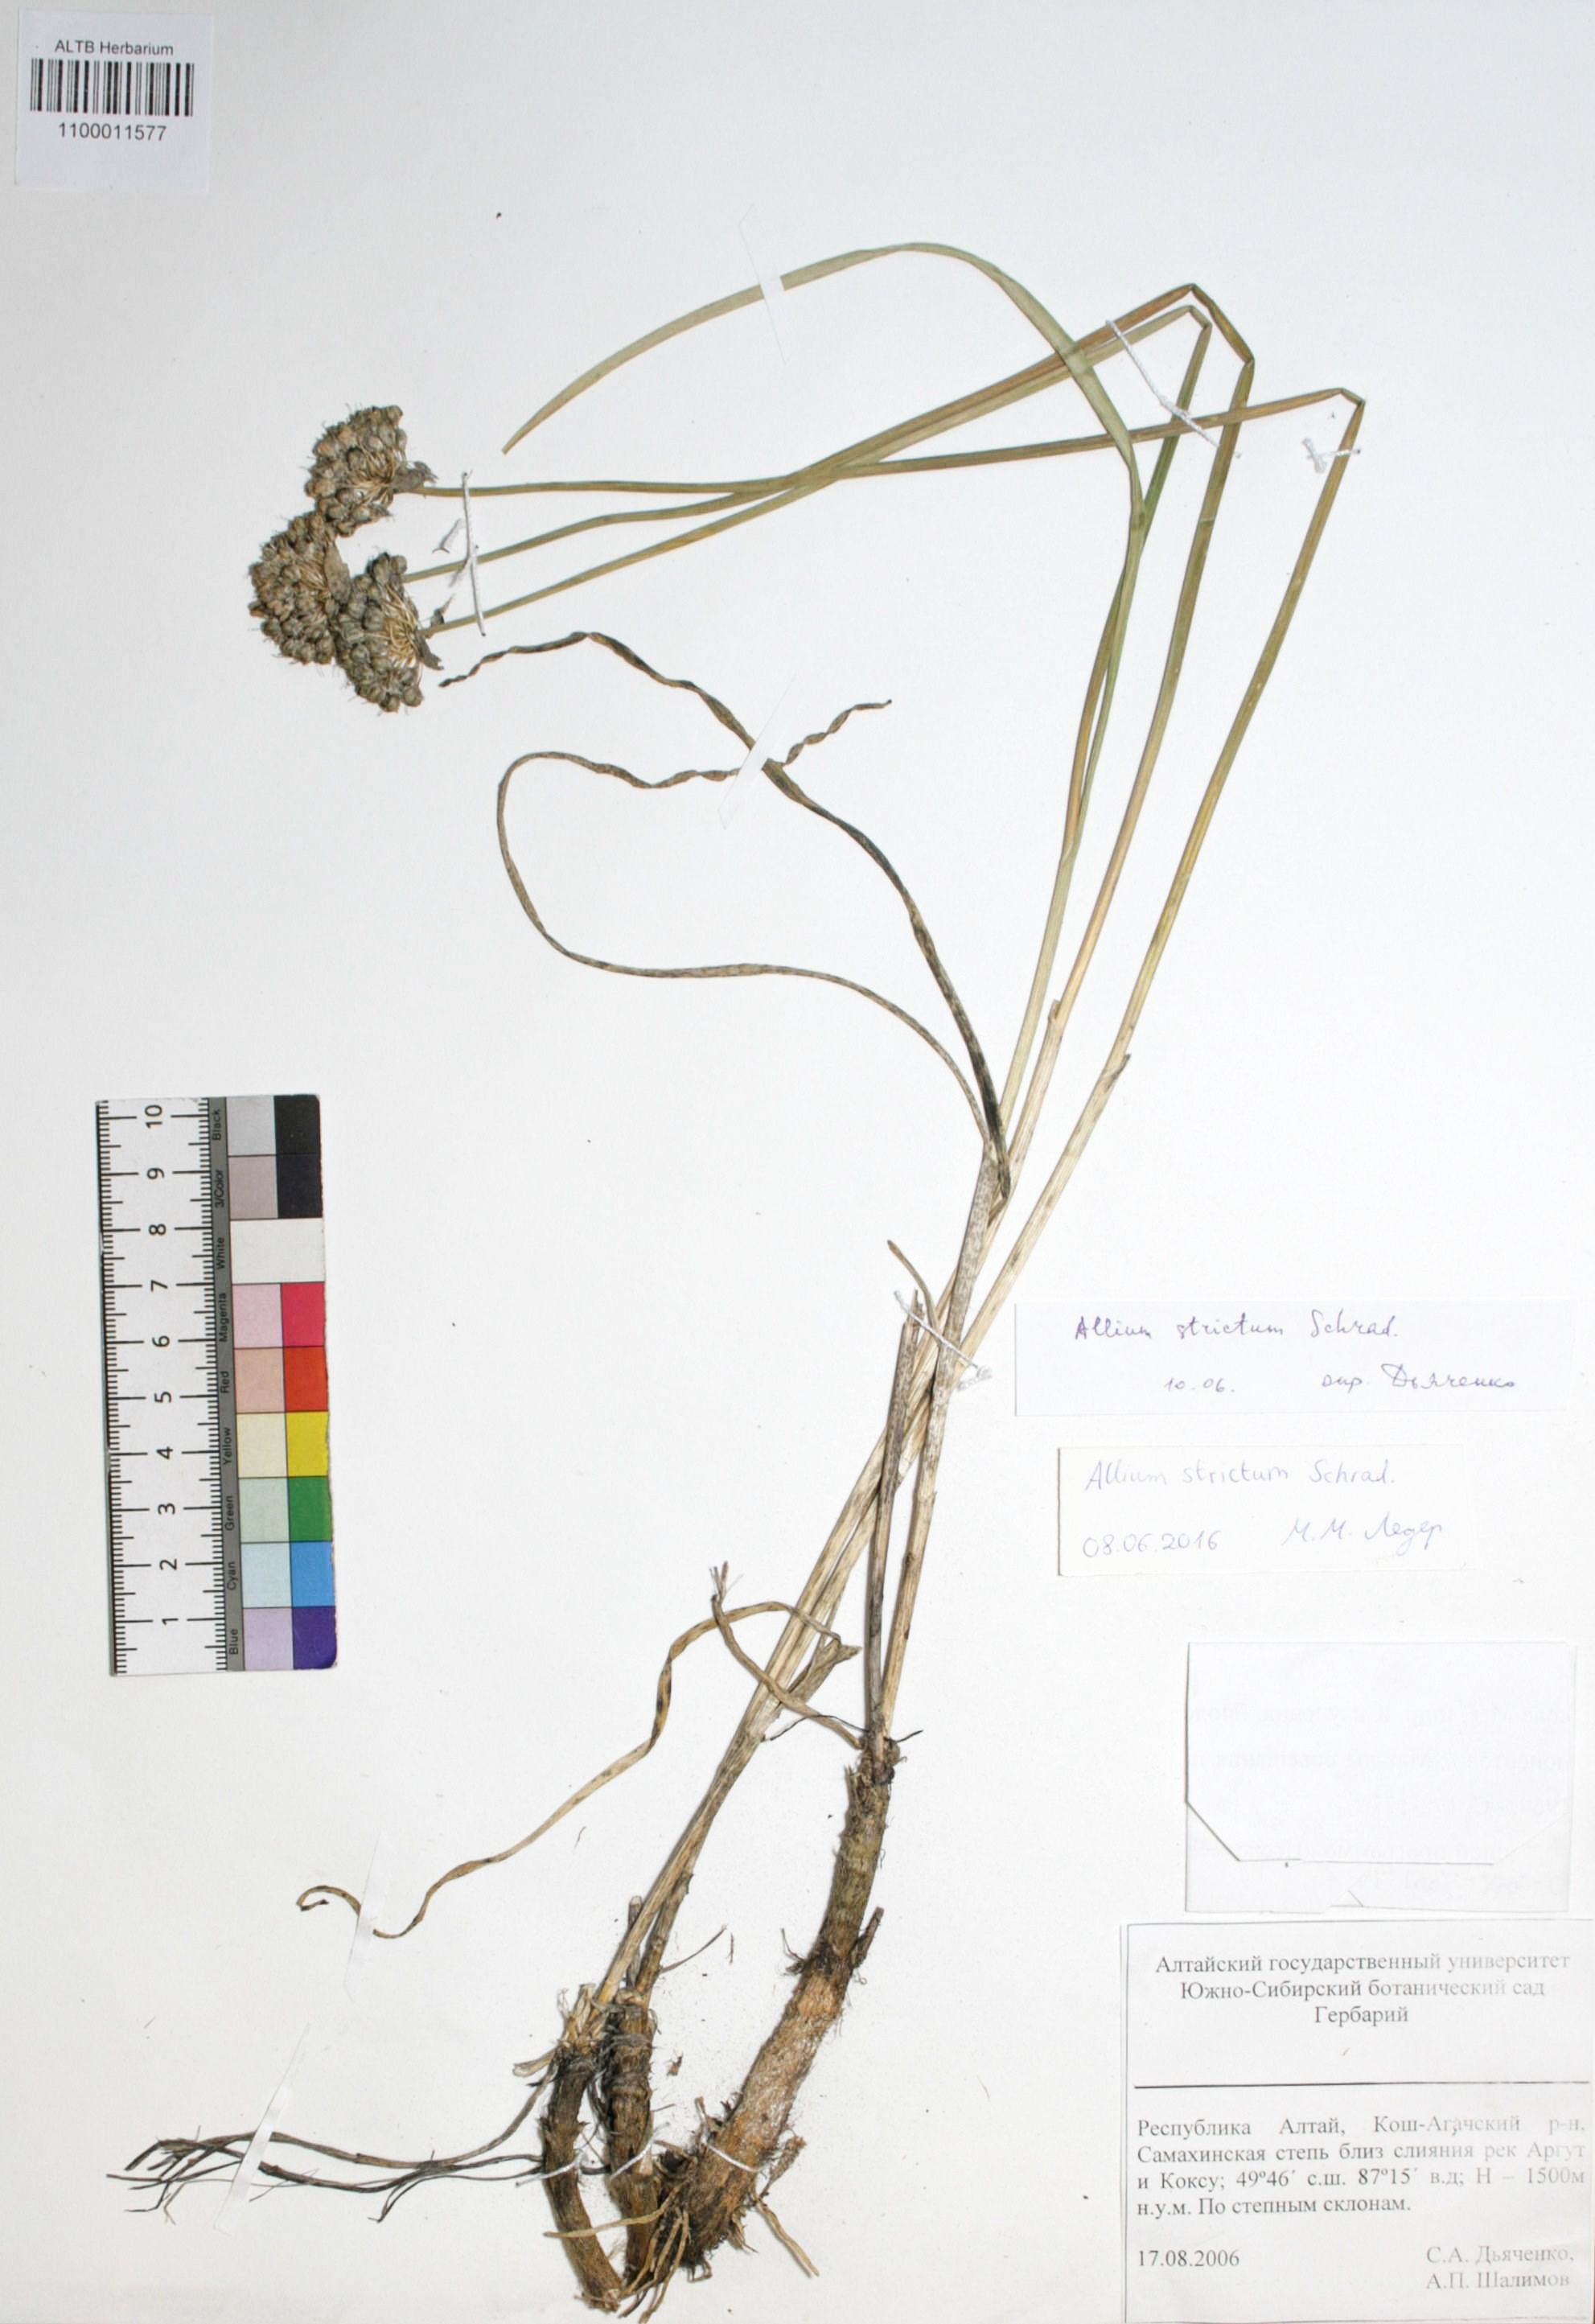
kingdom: Plantae
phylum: Tracheophyta
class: Liliopsida
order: Asparagales
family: Amaryllidaceae
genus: Allium
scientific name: Allium strictum
